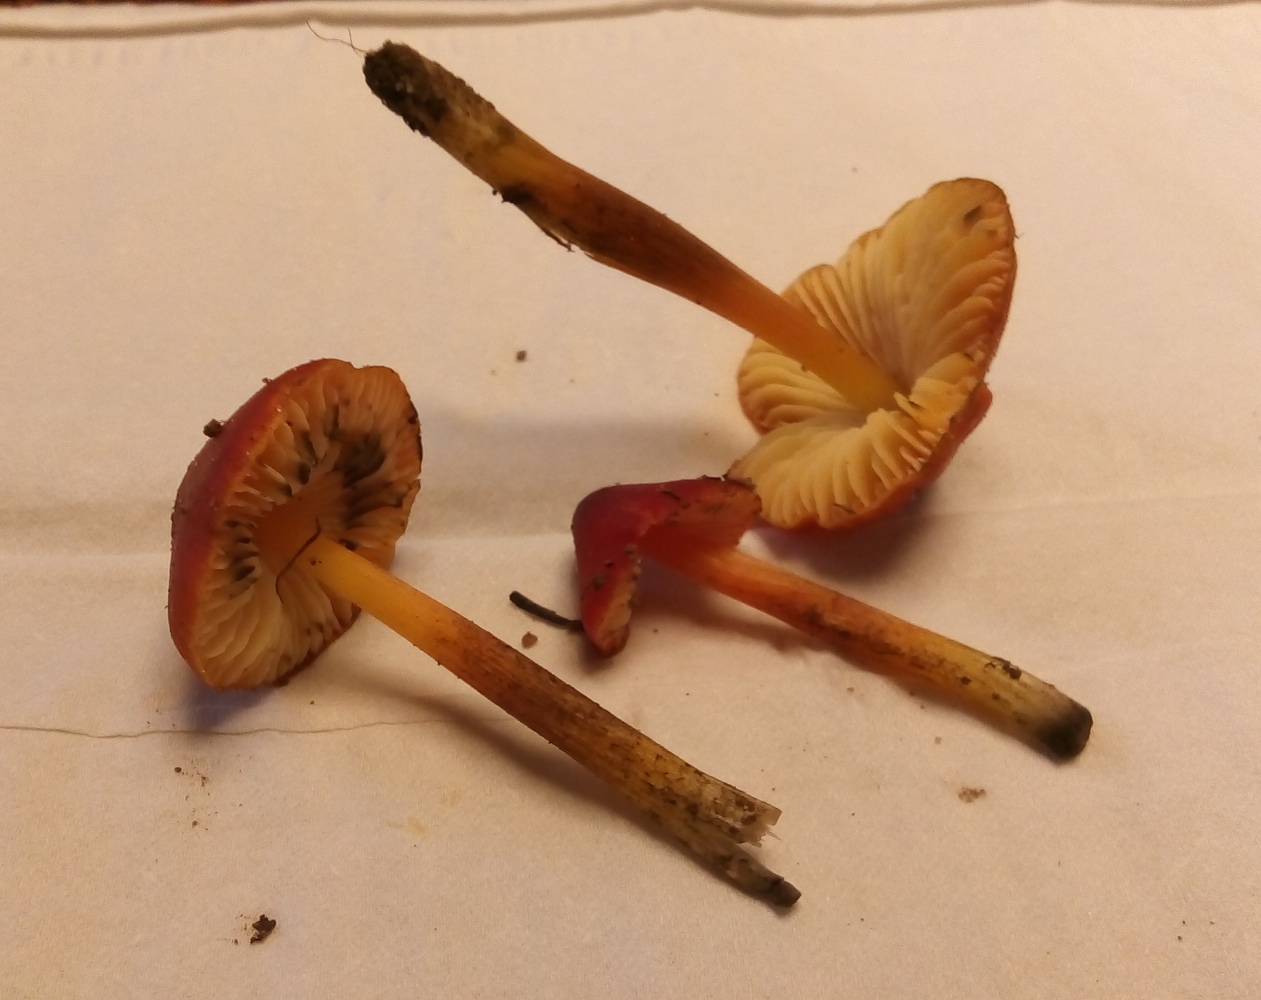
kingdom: Fungi
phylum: Basidiomycota
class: Agaricomycetes
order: Agaricales
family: Hygrophoraceae
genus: Hygrocybe
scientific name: Hygrocybe conica
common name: kegle-vokshat
